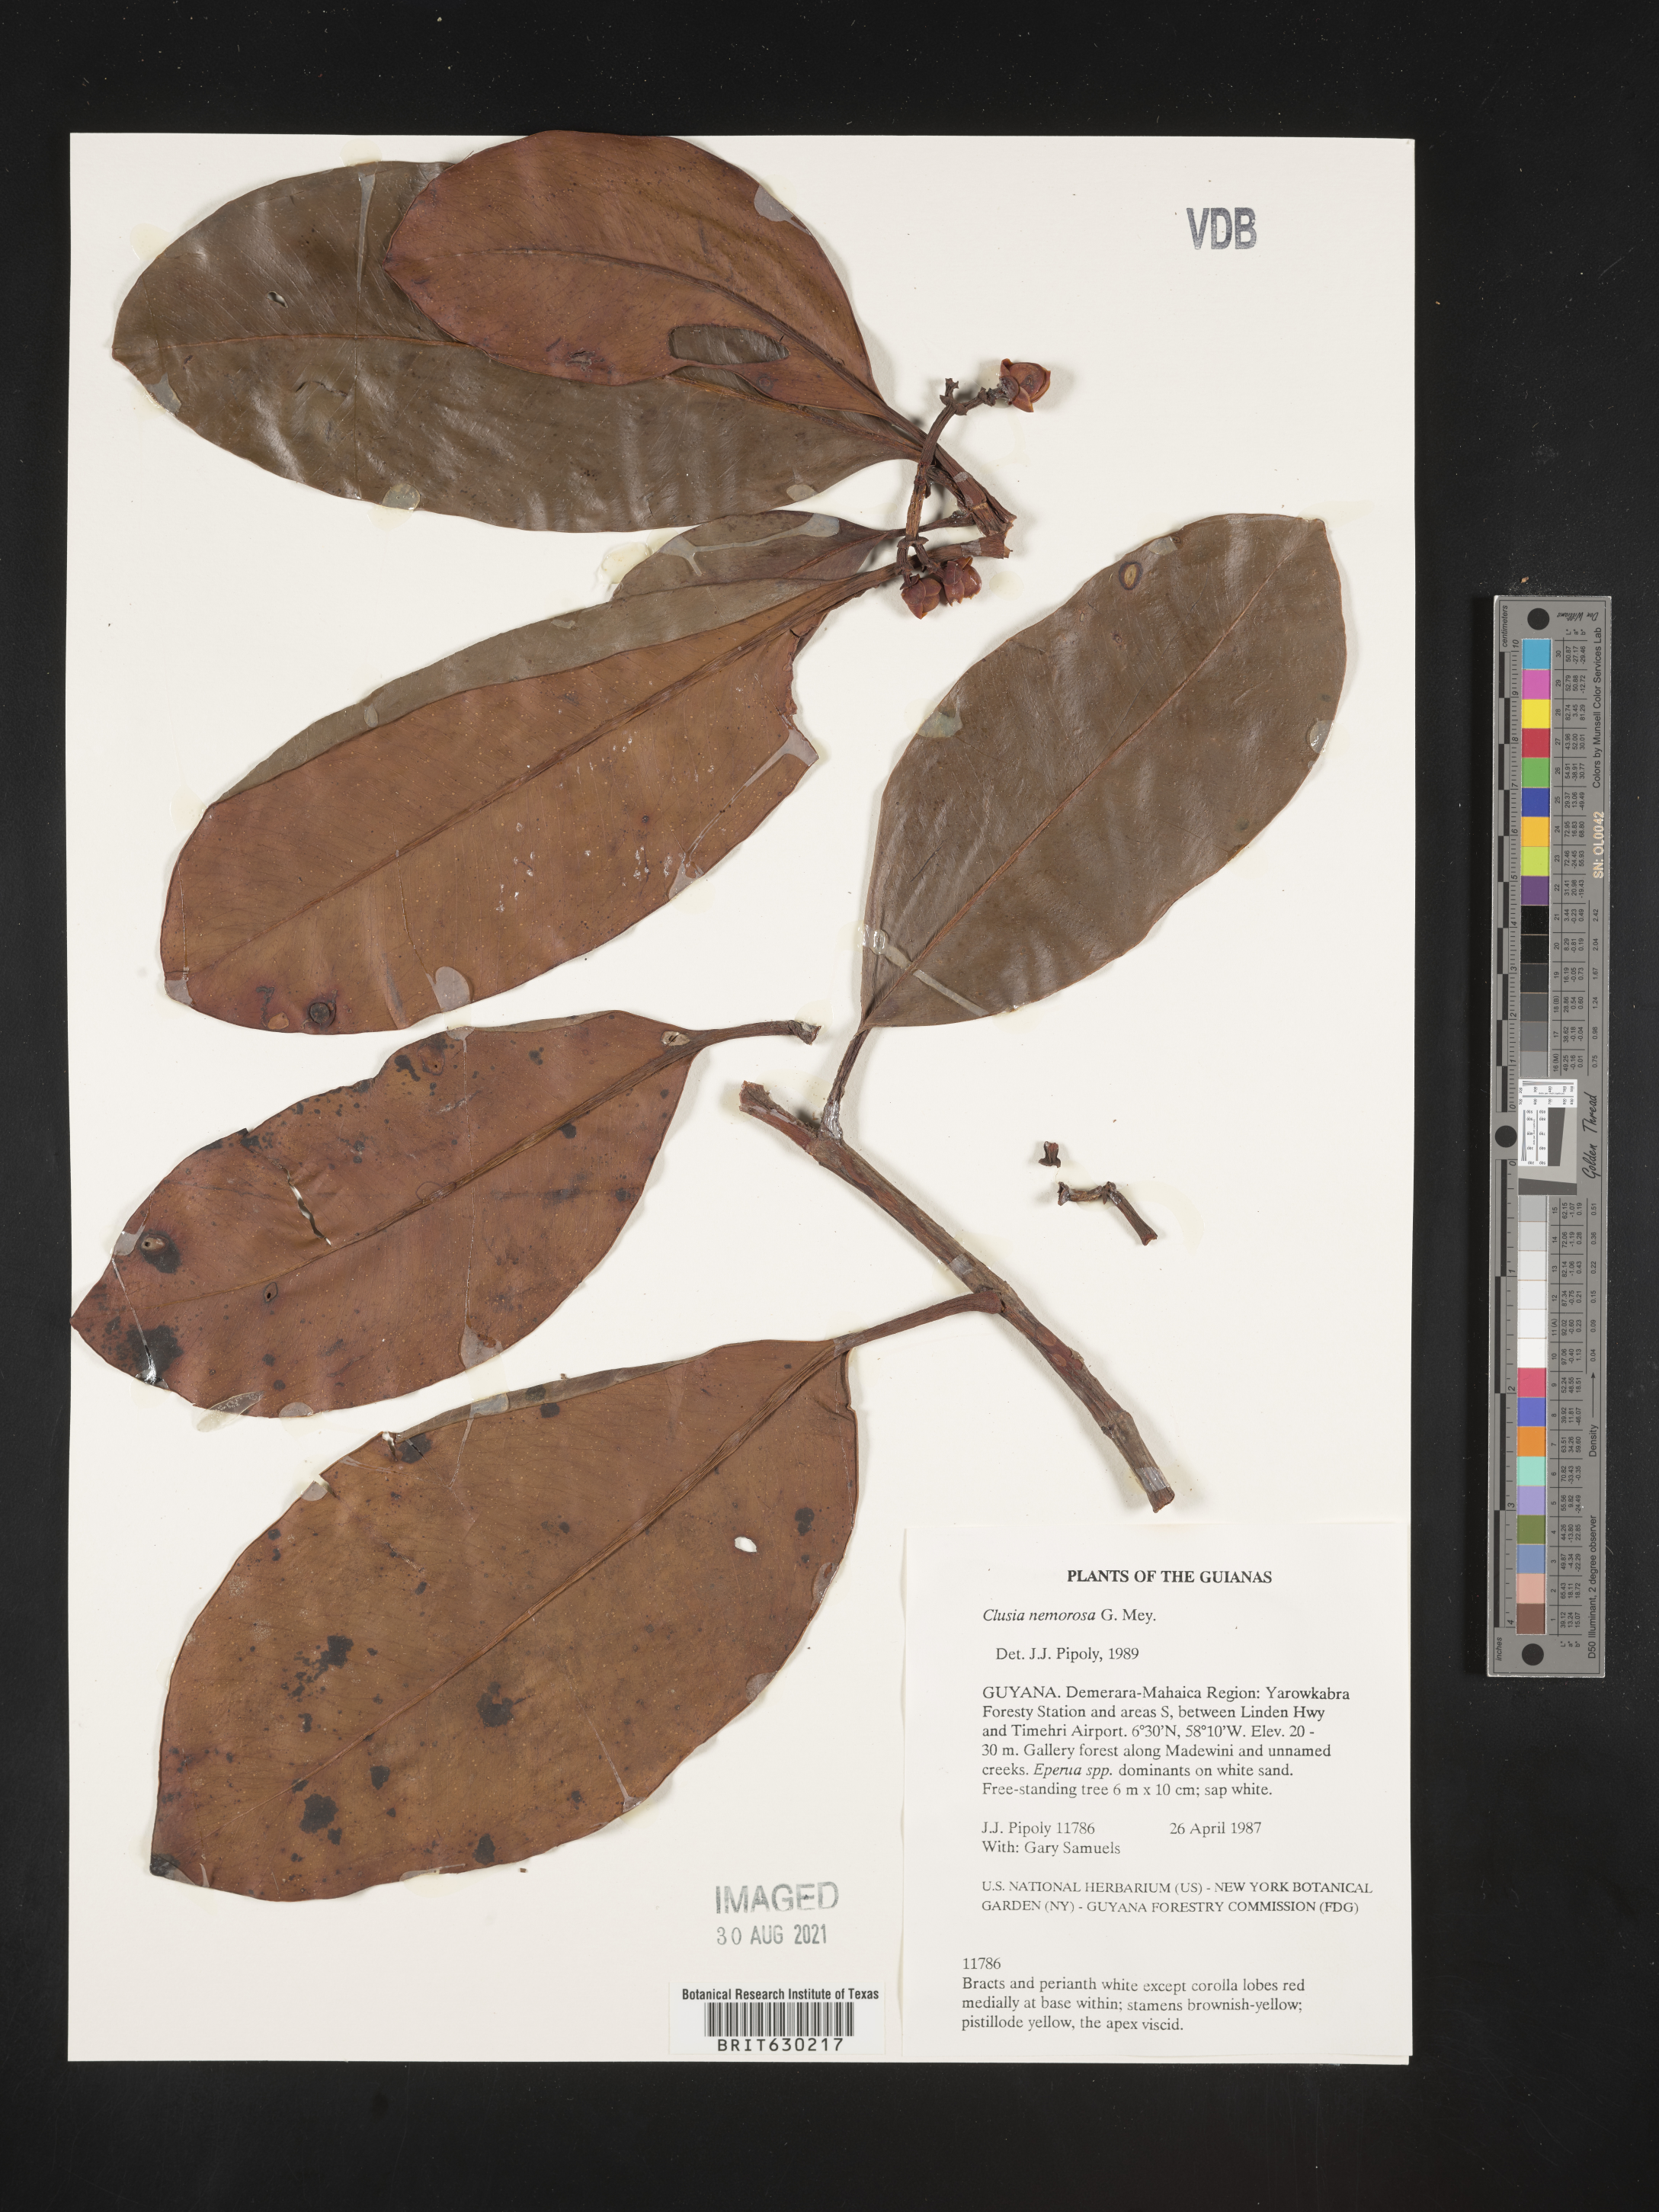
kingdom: Plantae
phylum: Tracheophyta
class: Magnoliopsida
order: Malpighiales
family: Clusiaceae
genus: Clusia
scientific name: Clusia nemorosa
